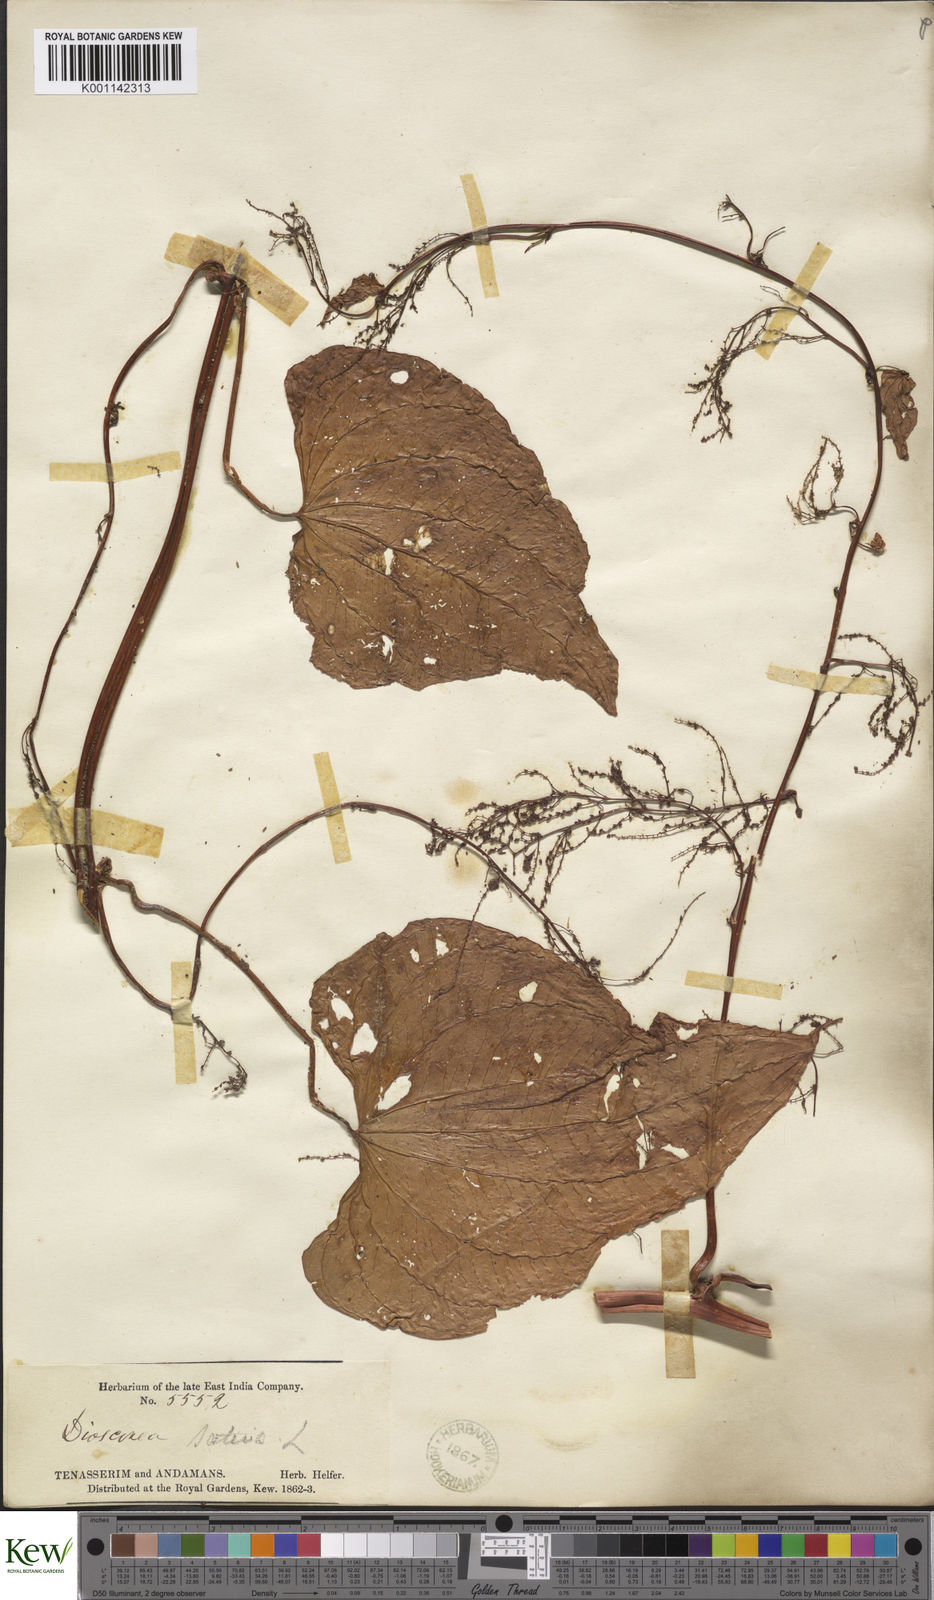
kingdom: Plantae
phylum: Tracheophyta
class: Liliopsida
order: Dioscoreales
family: Dioscoreaceae
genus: Dioscorea
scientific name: Dioscorea bulbifera
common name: Air yam
